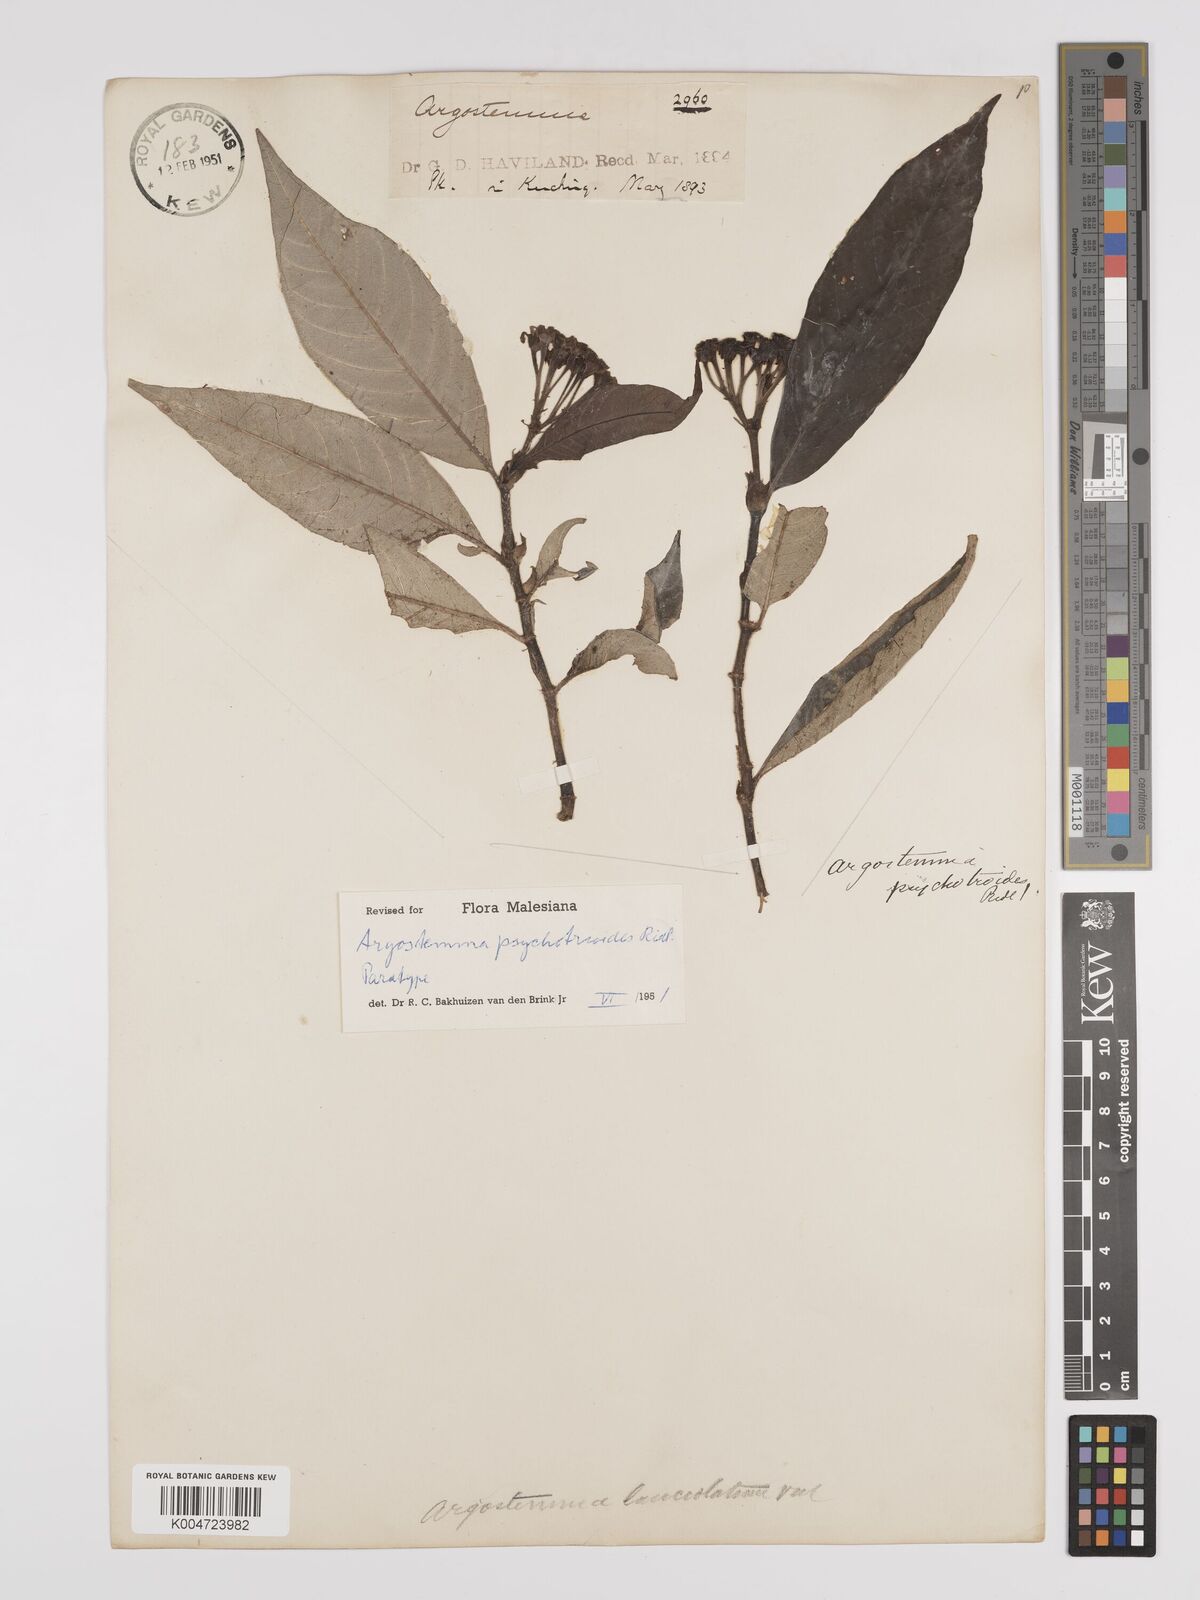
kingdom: Plantae
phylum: Tracheophyta
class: Magnoliopsida
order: Gentianales
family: Rubiaceae
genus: Argostemma
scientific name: Argostemma psychotrioides
